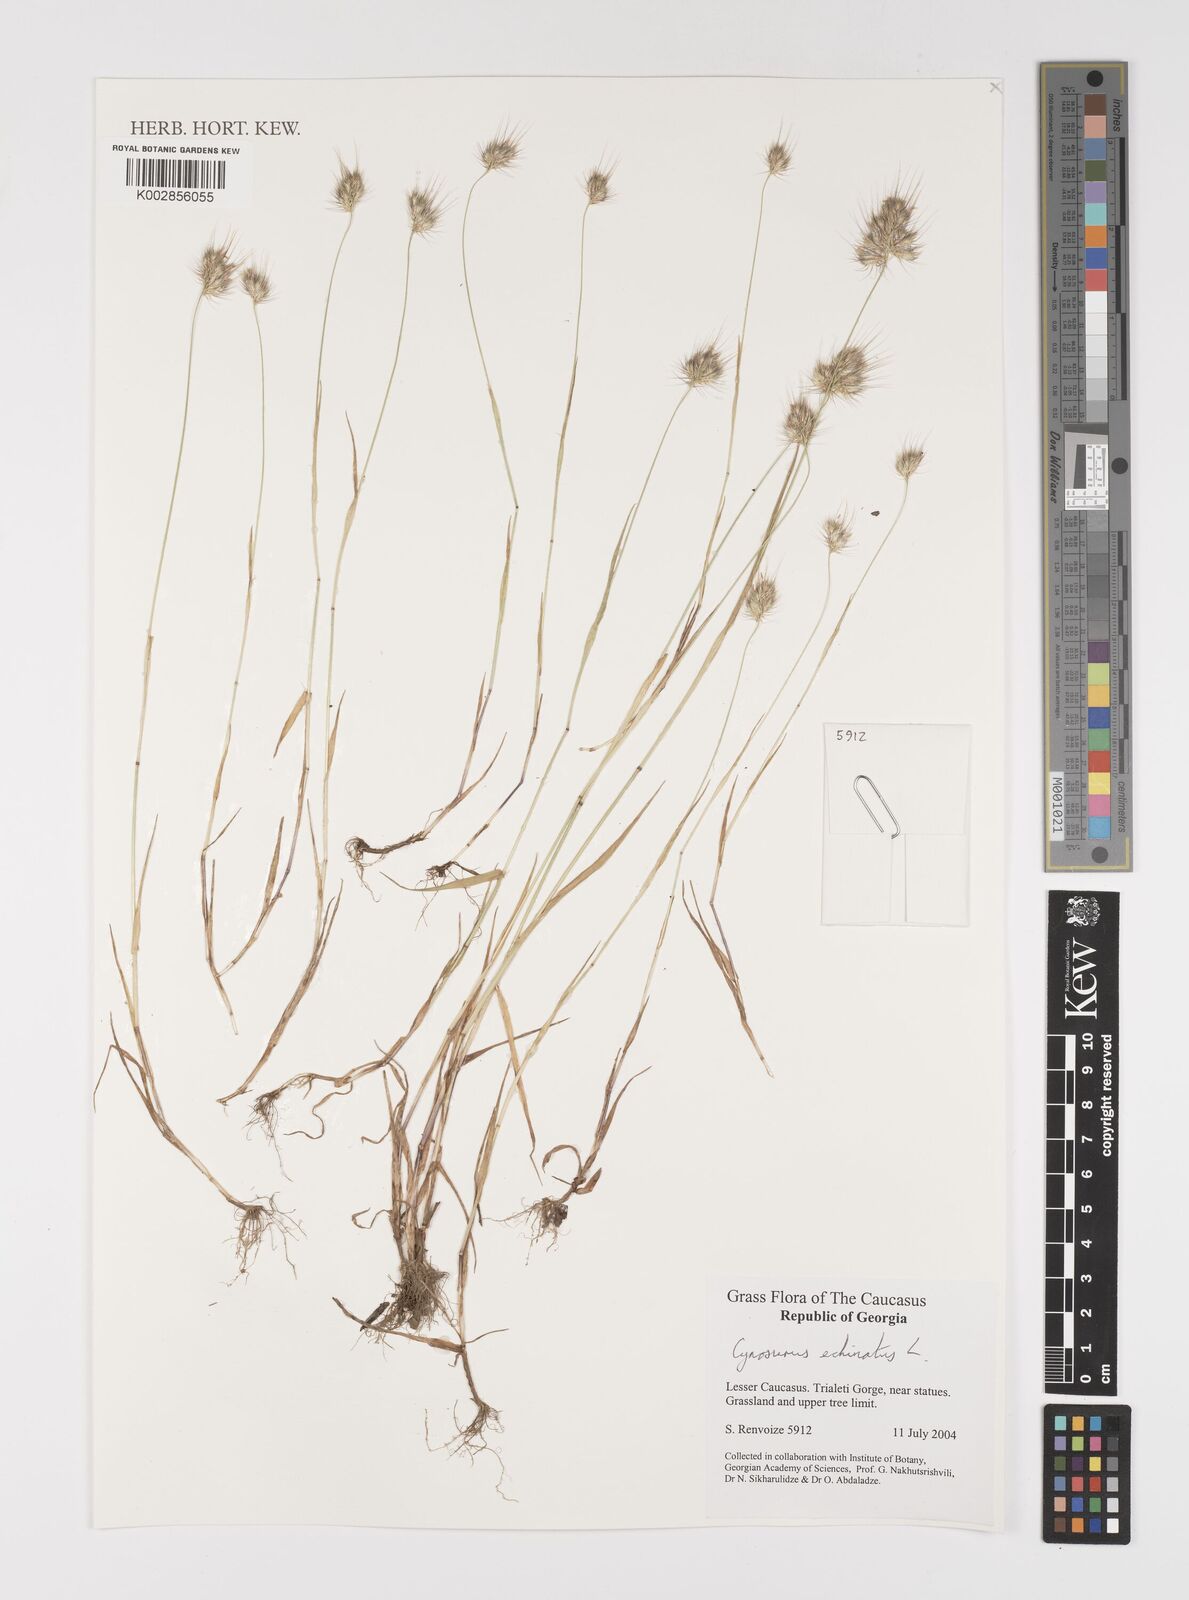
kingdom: Plantae
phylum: Tracheophyta
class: Liliopsida
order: Poales
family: Poaceae
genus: Cynosurus
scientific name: Cynosurus echinatus
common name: Rough dog's-tail
